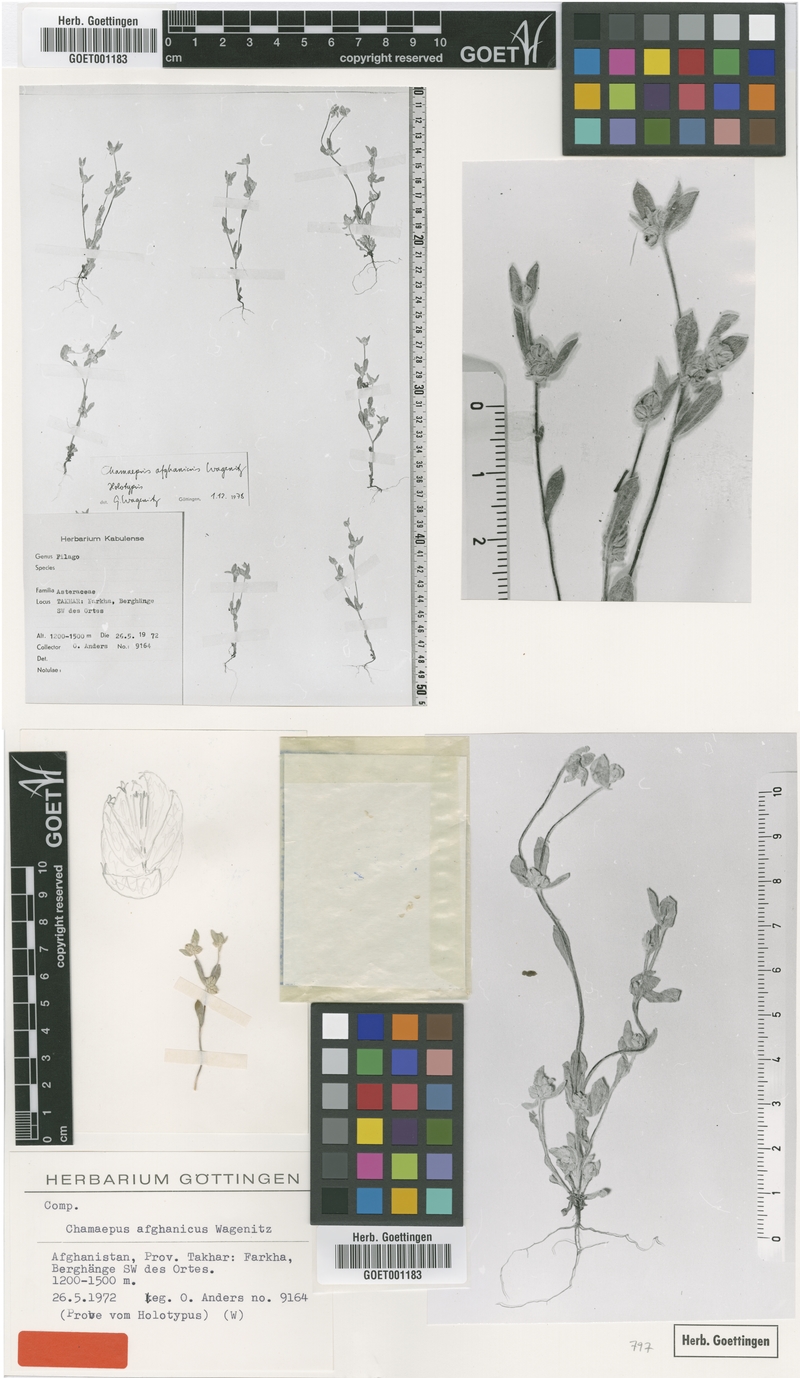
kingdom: Plantae
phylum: Tracheophyta
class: Magnoliopsida
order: Asterales
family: Asteraceae
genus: Chamaepus
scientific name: Chamaepus afghanicus
